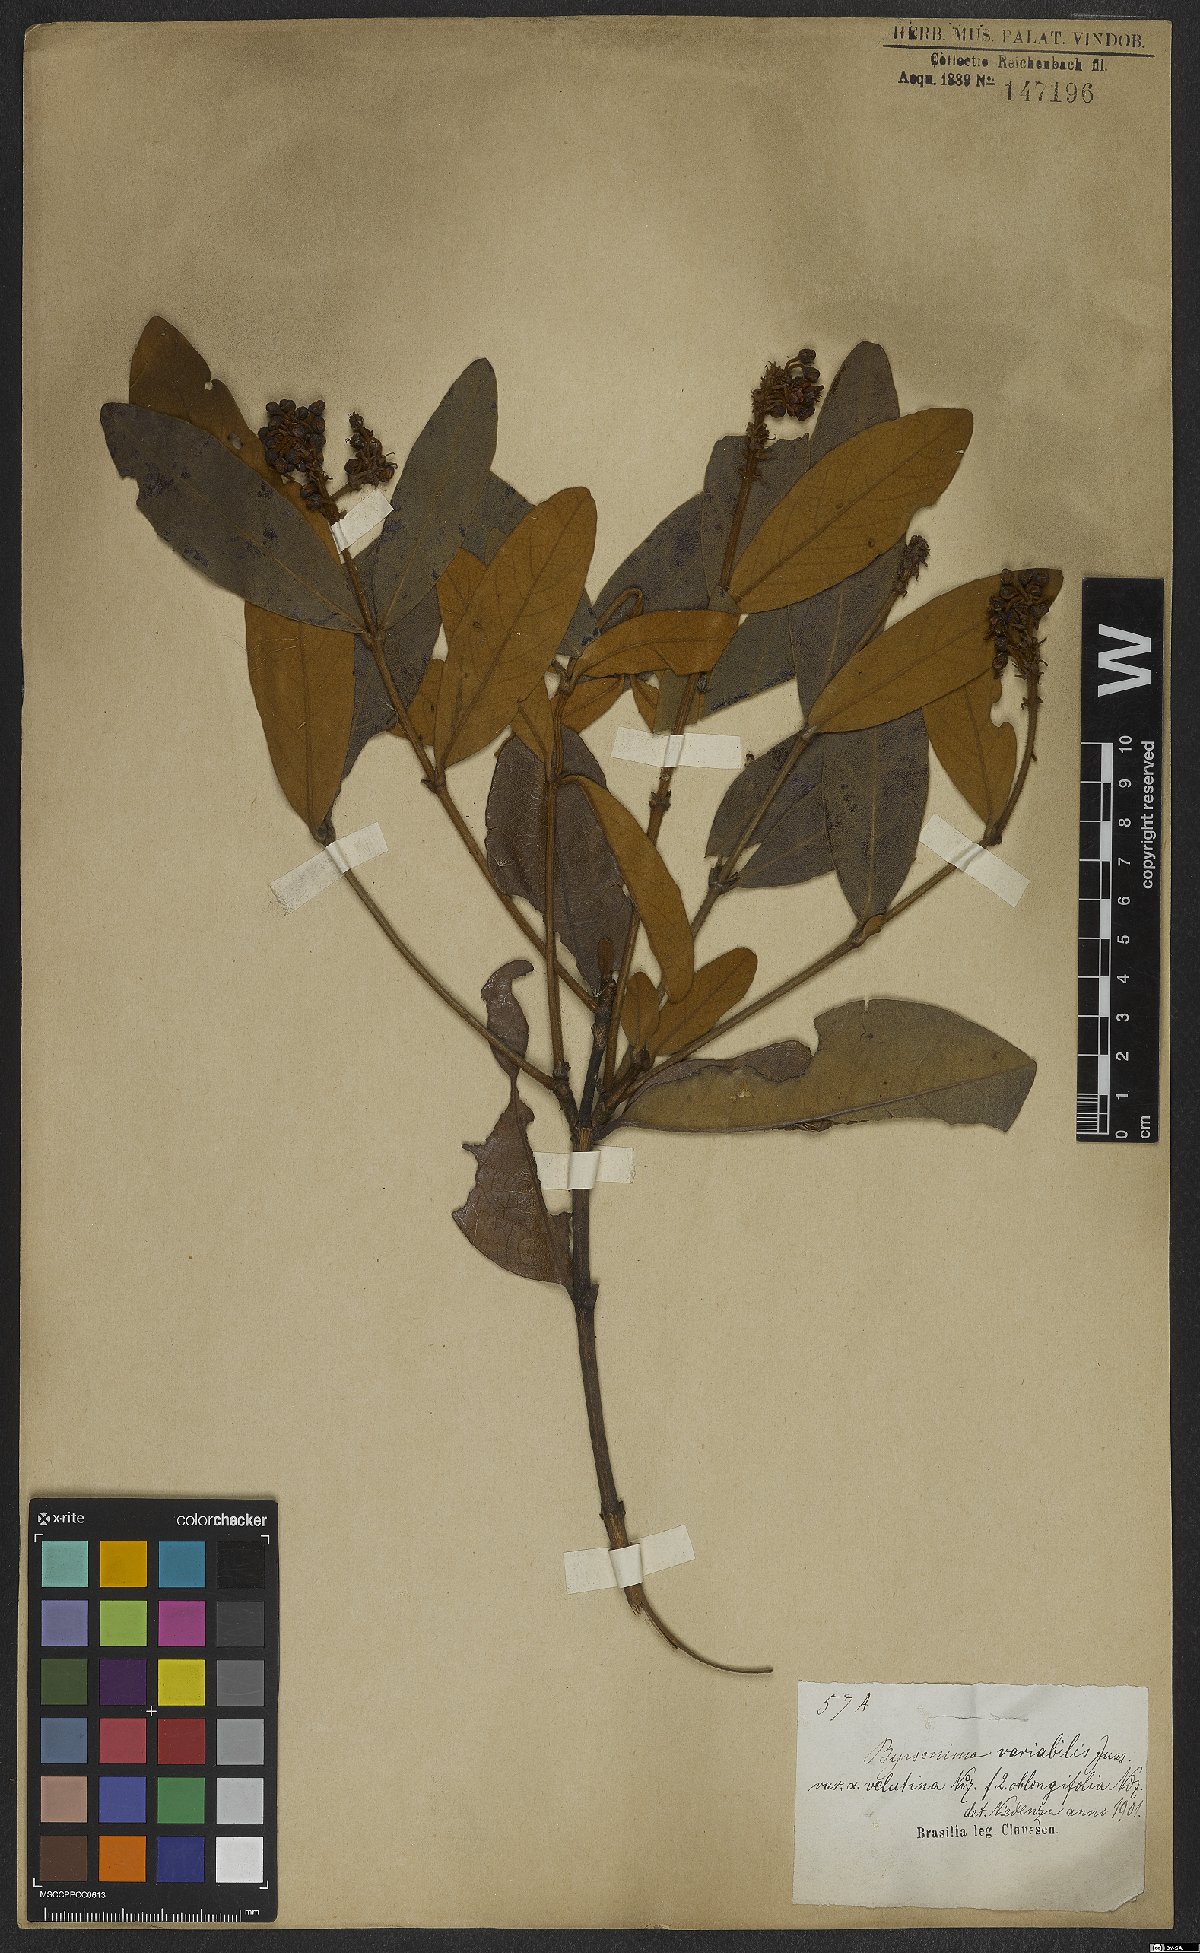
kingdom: Plantae
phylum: Tracheophyta
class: Magnoliopsida
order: Malpighiales
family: Malpighiaceae
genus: Byrsonima
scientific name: Byrsonima variabilis
